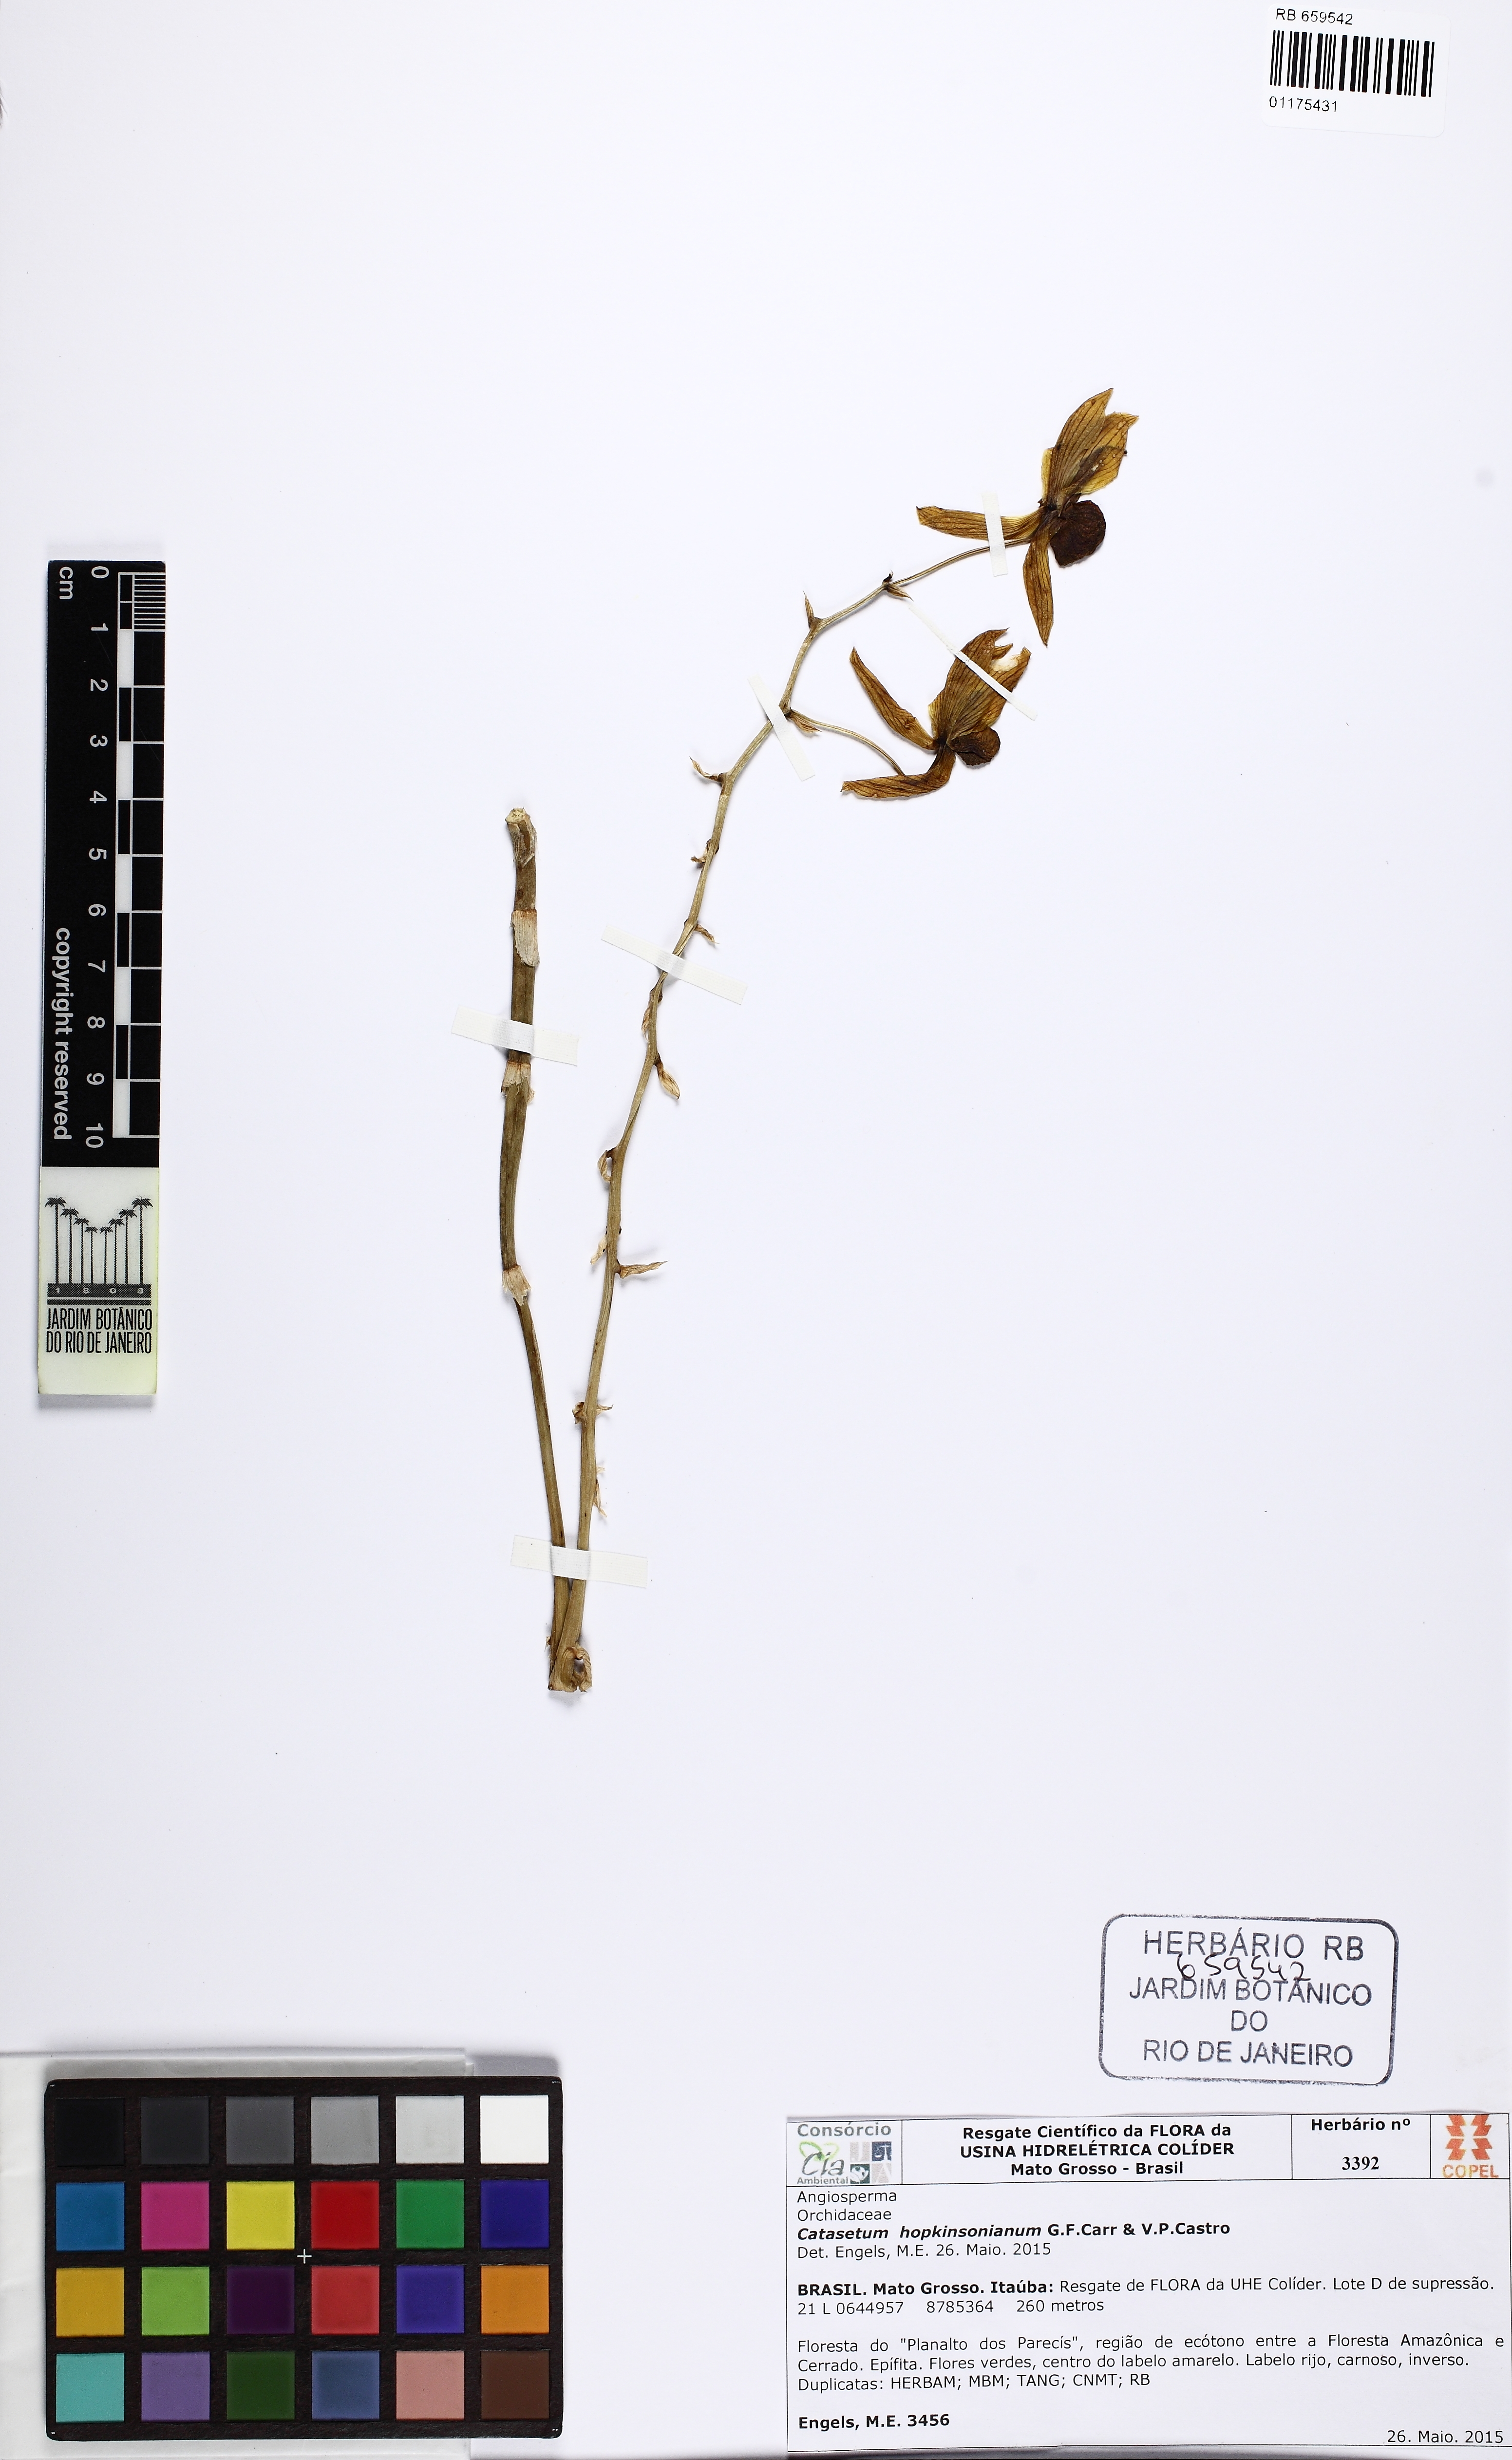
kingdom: Plantae
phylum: Tracheophyta
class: Liliopsida
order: Asparagales
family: Orchidaceae
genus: Catasetum
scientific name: Catasetum hopkinsonianum
